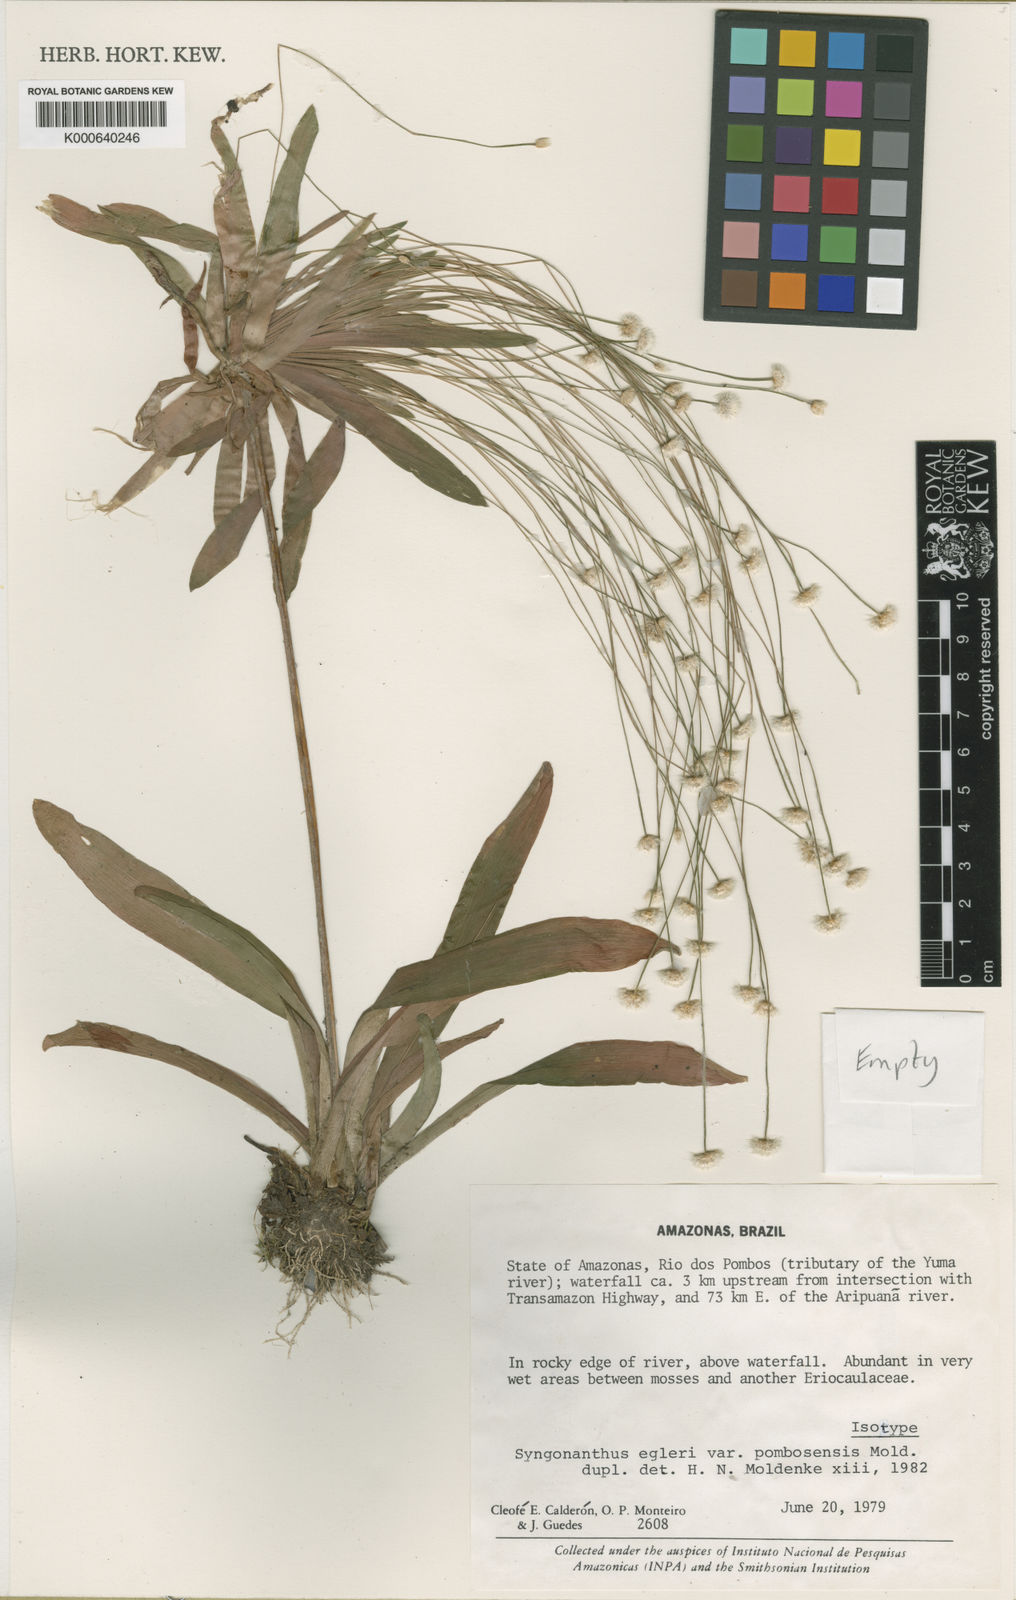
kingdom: Plantae
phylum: Tracheophyta
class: Liliopsida
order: Poales
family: Eriocaulaceae
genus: Syngonanthus
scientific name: Syngonanthus egleri
